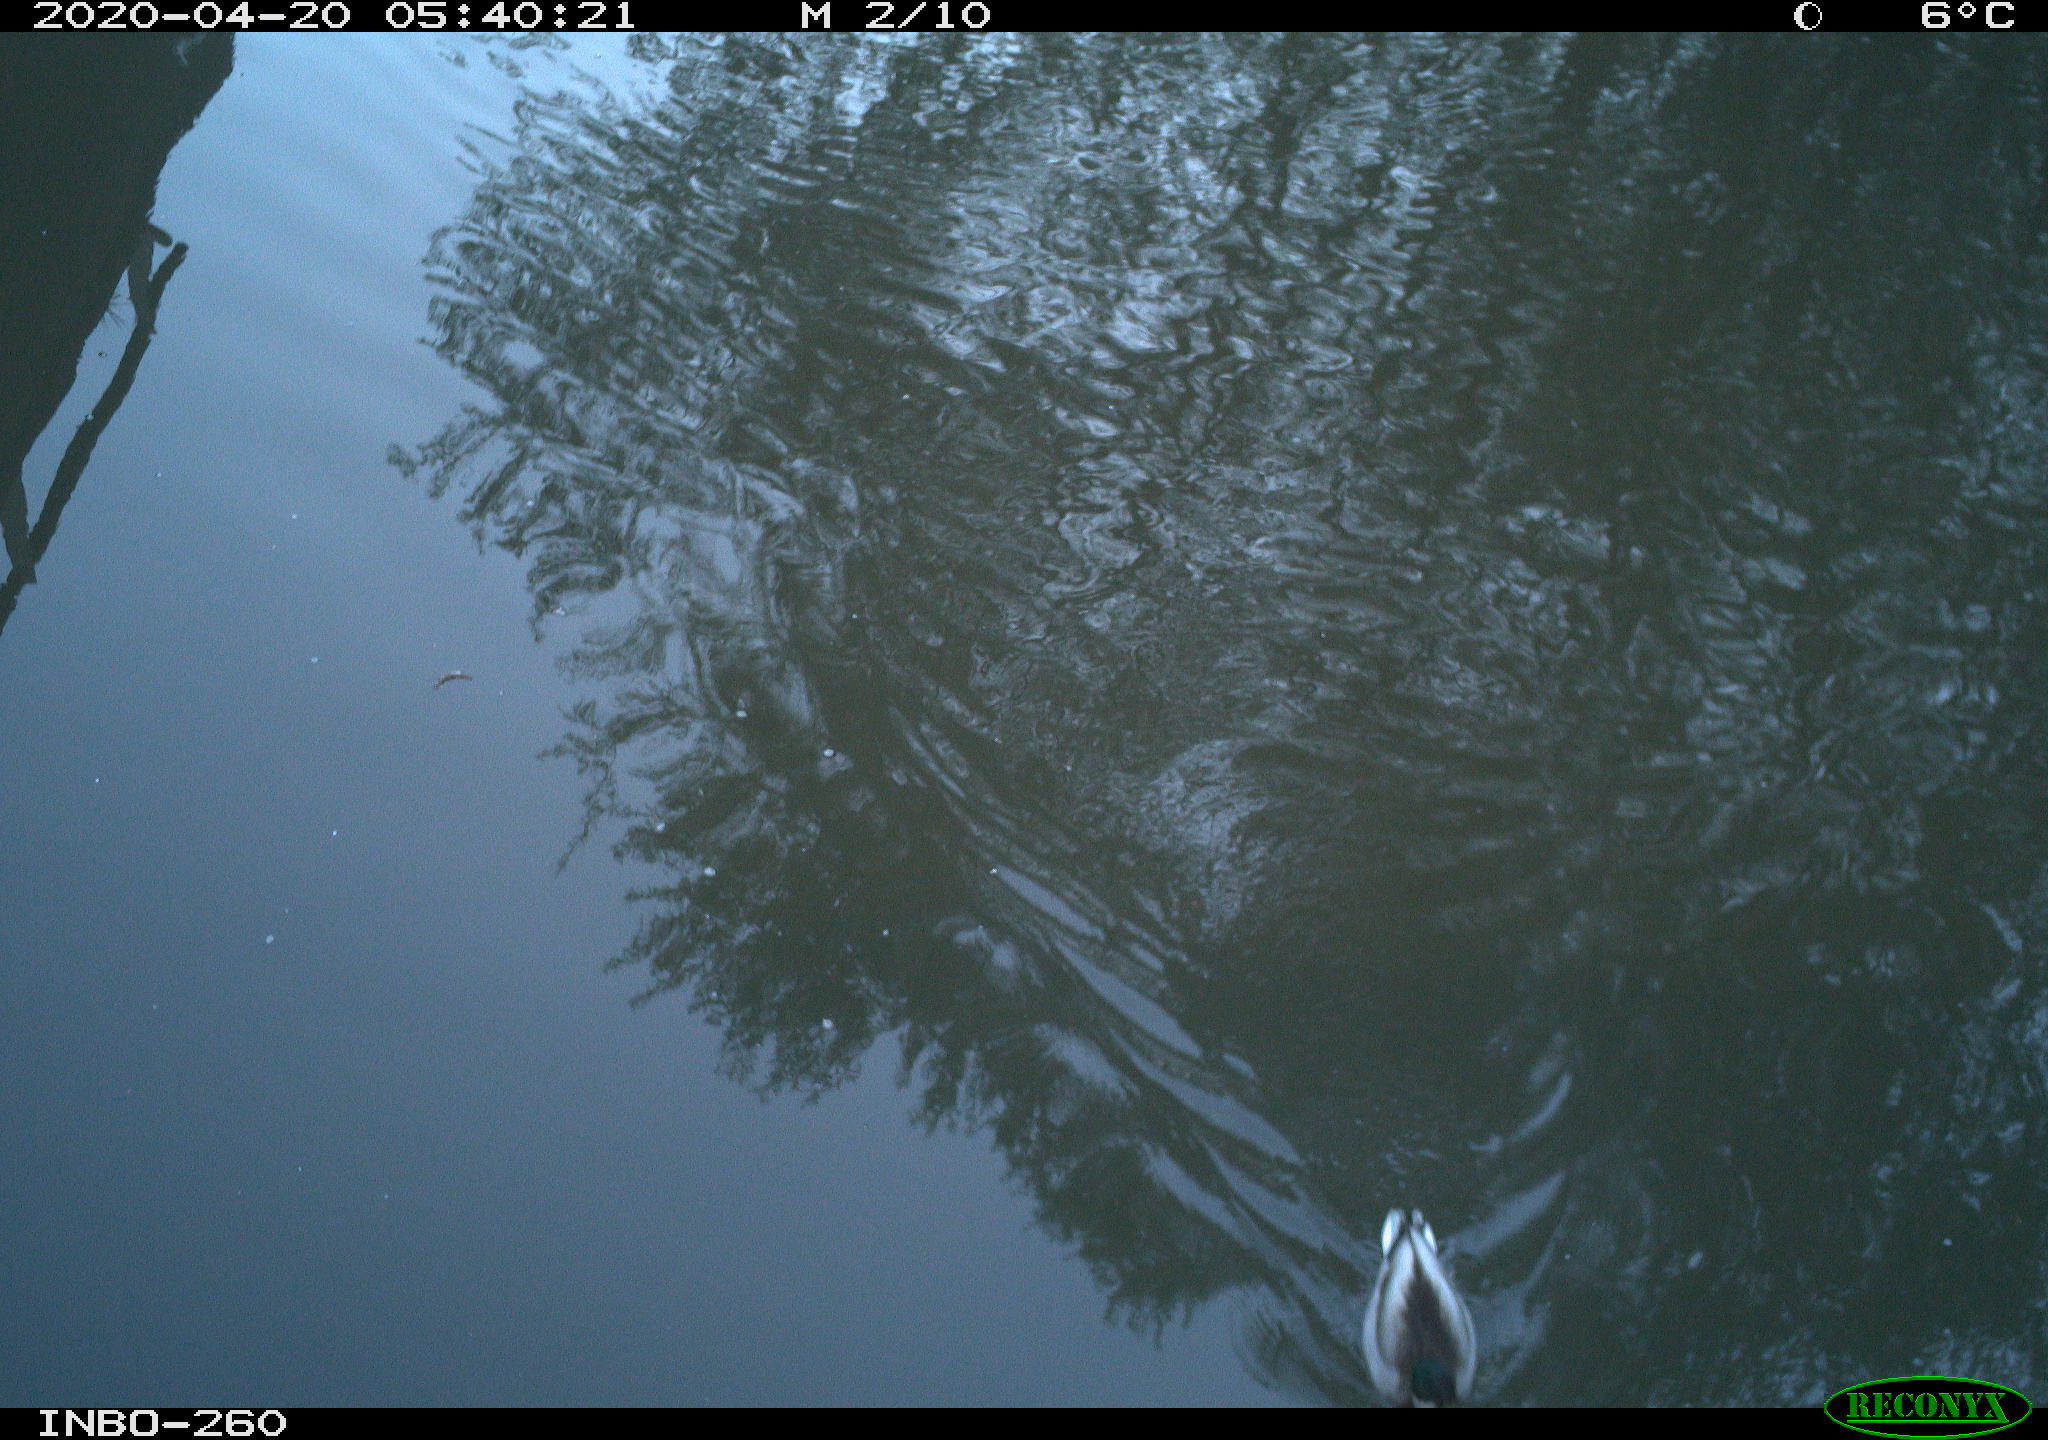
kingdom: Animalia
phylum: Chordata
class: Aves
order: Anseriformes
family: Anatidae
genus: Anas
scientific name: Anas platyrhynchos
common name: Mallard
